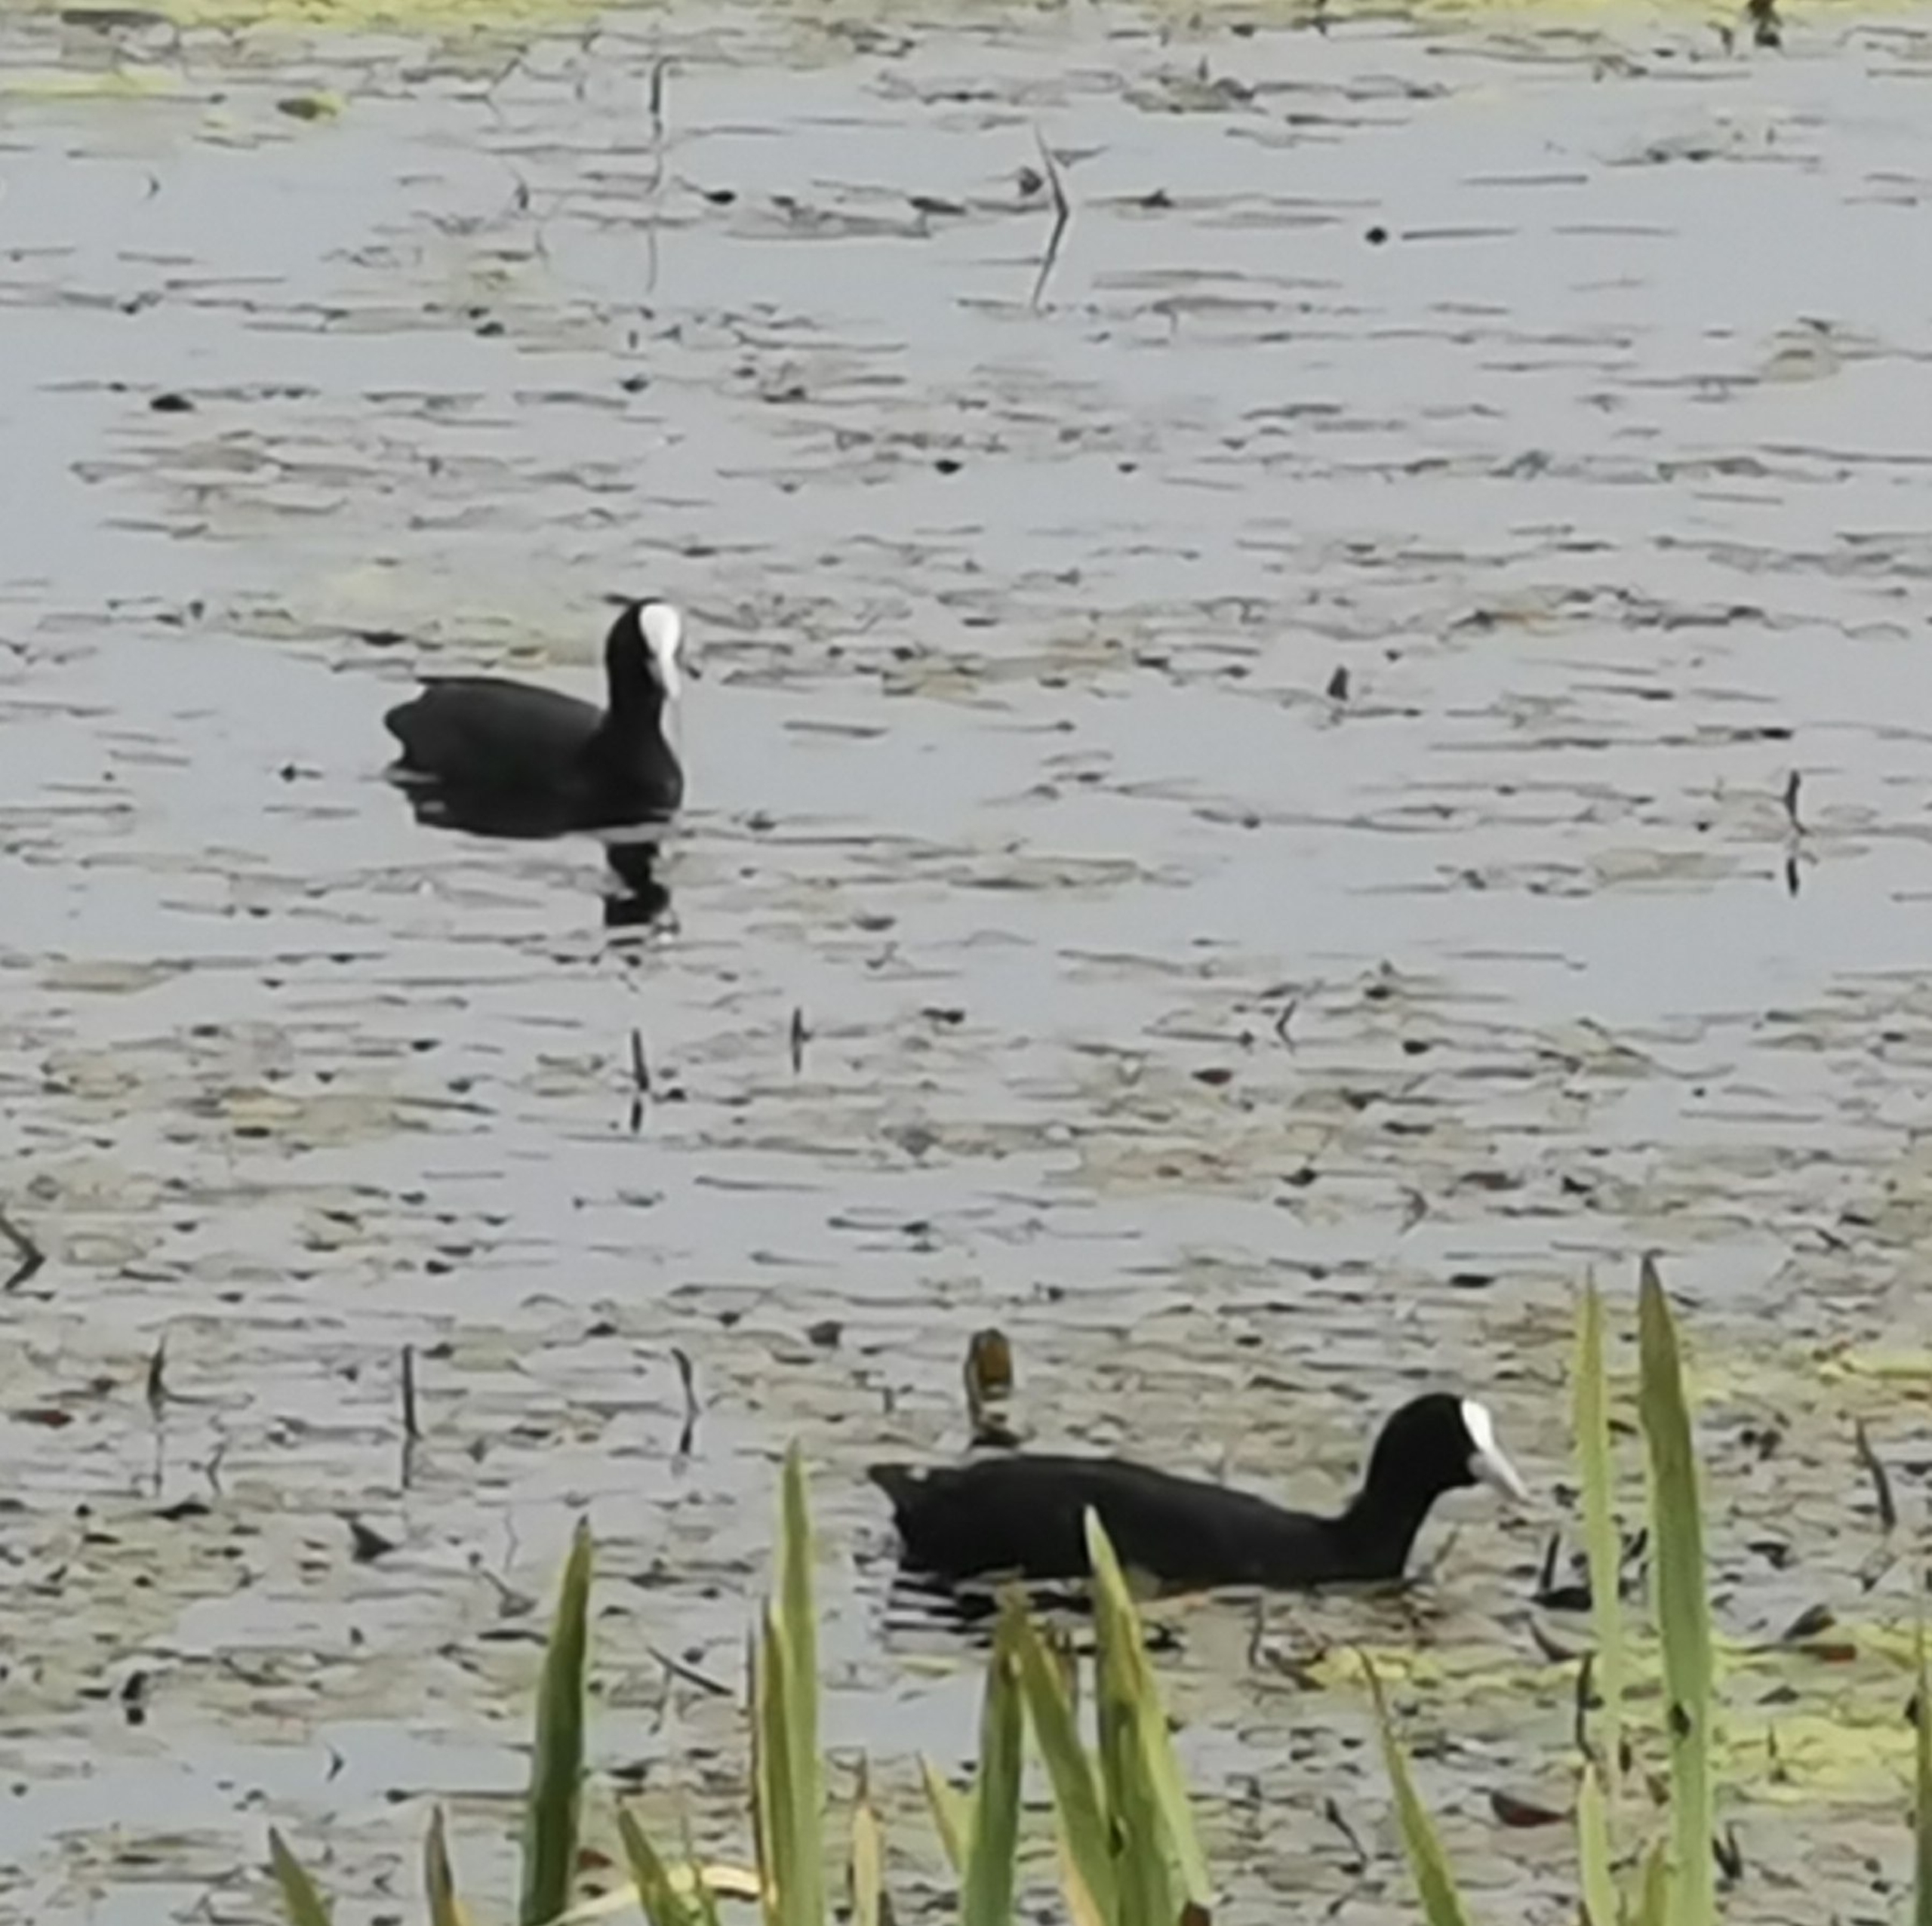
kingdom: Animalia
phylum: Chordata
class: Aves
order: Gruiformes
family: Rallidae
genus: Fulica
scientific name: Fulica atra
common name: Blishøne
